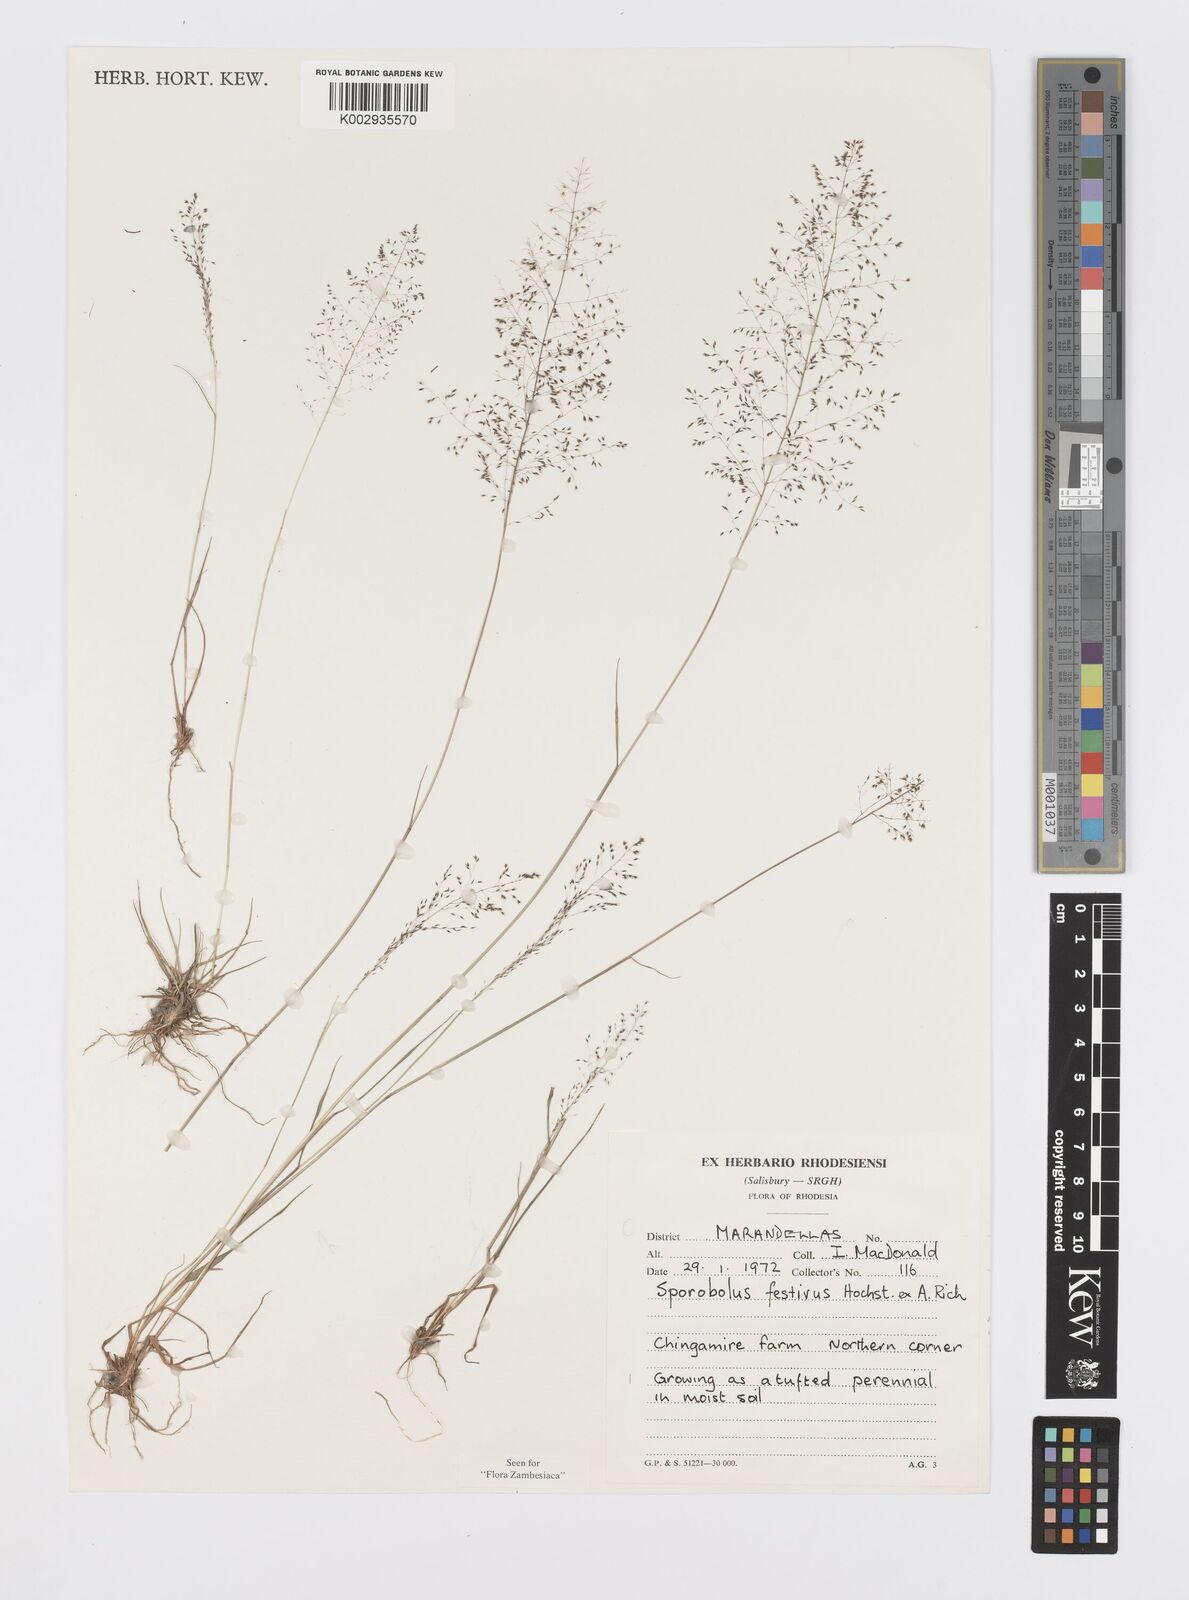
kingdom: Plantae
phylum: Tracheophyta
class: Liliopsida
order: Poales
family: Poaceae
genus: Sporobolus
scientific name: Sporobolus festivus
